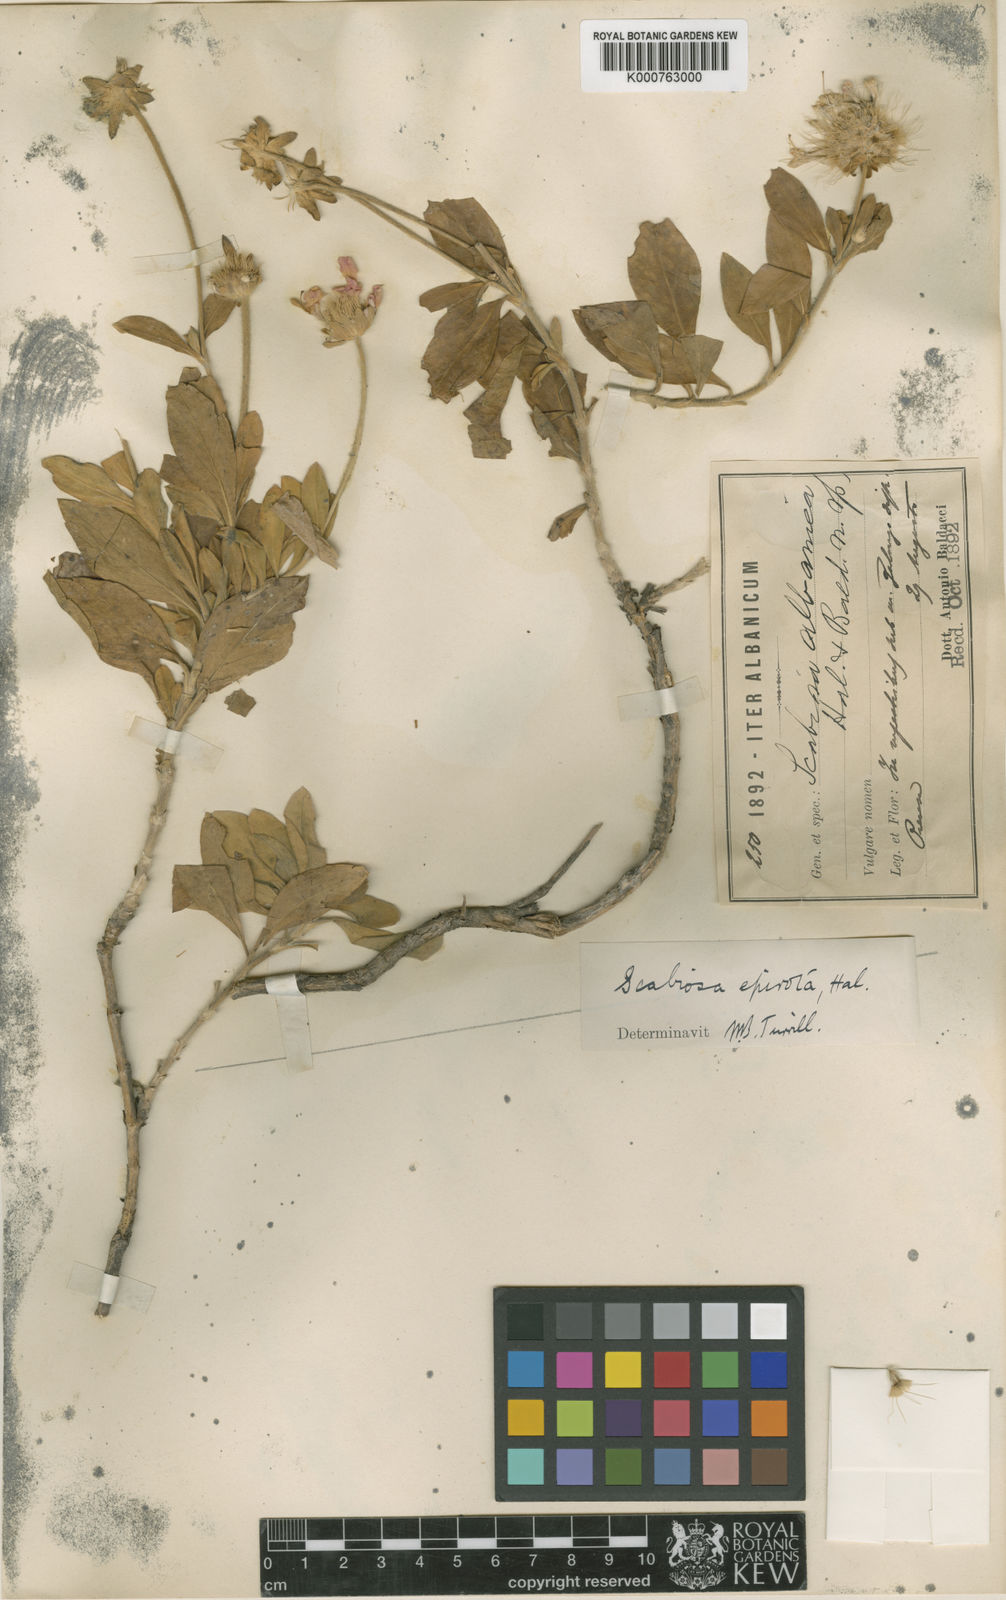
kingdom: Plantae
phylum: Tracheophyta
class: Magnoliopsida
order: Dipsacales
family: Caprifoliaceae
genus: Scabiosa
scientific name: Scabiosa
